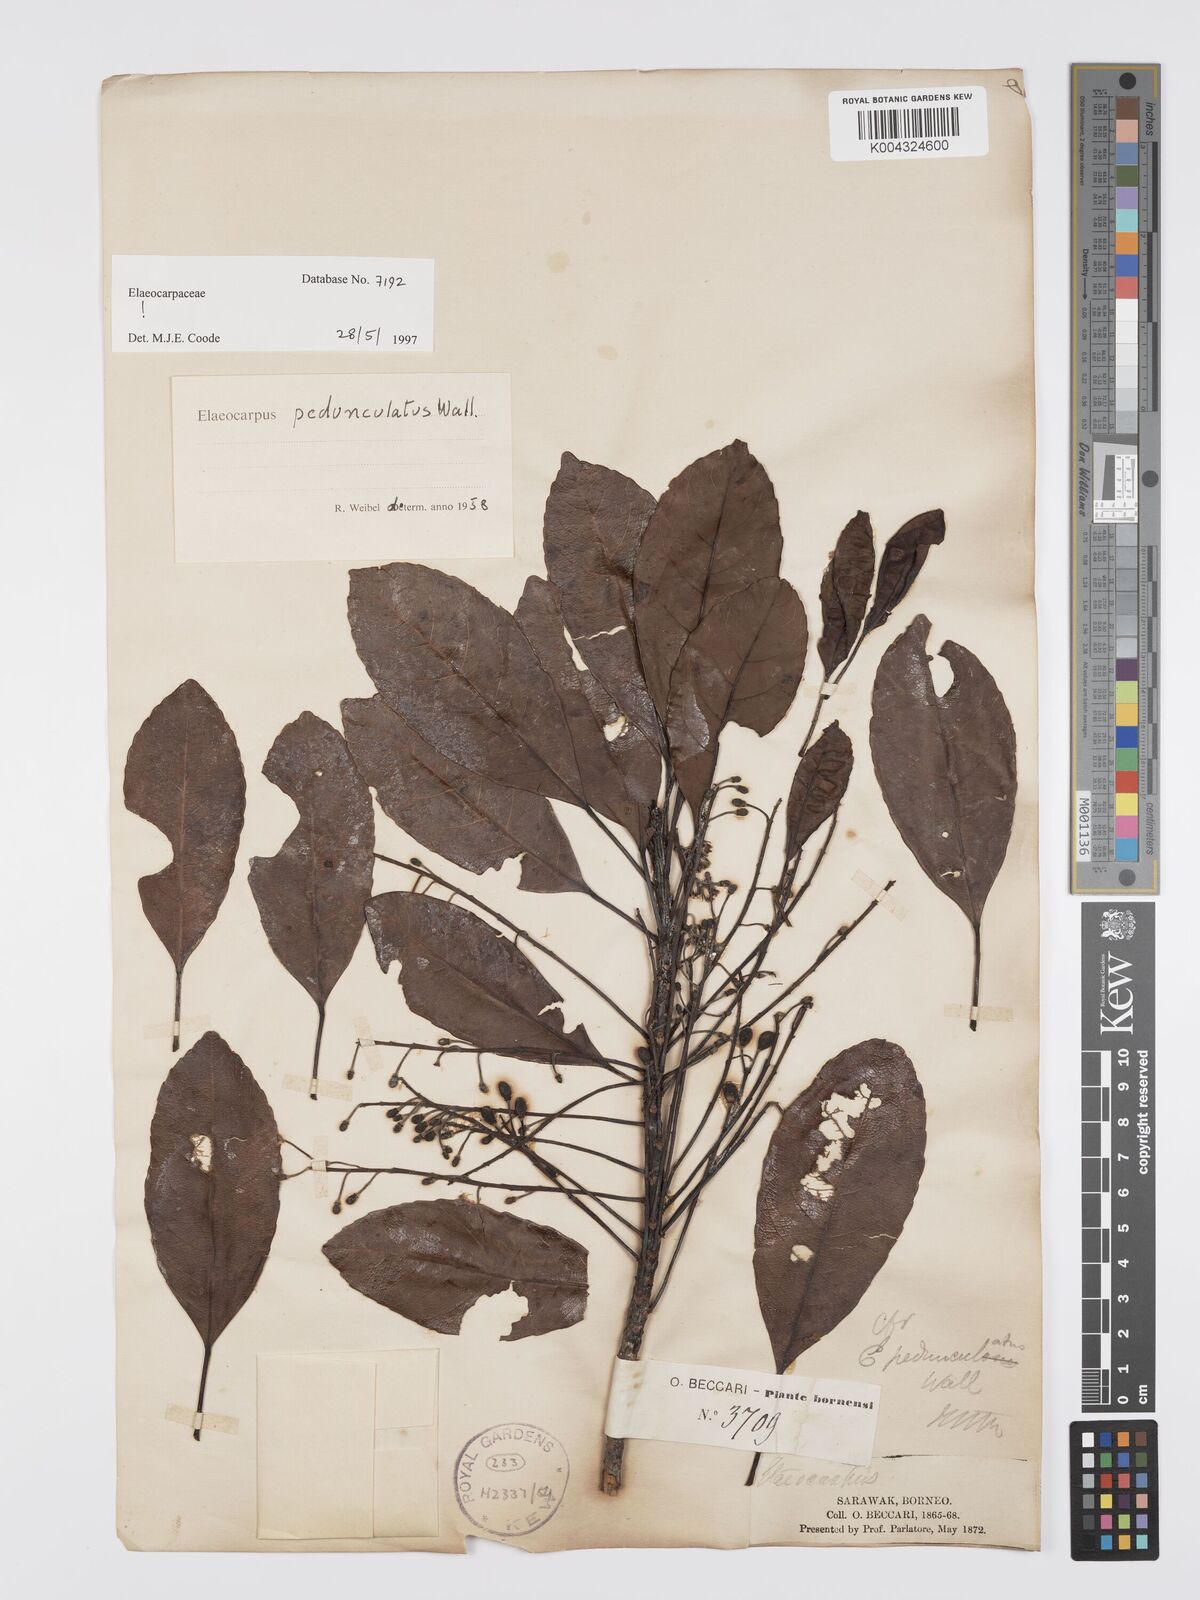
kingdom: Plantae
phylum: Tracheophyta
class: Magnoliopsida
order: Oxalidales
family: Elaeocarpaceae
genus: Elaeocarpus
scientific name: Elaeocarpus pedunculatus
